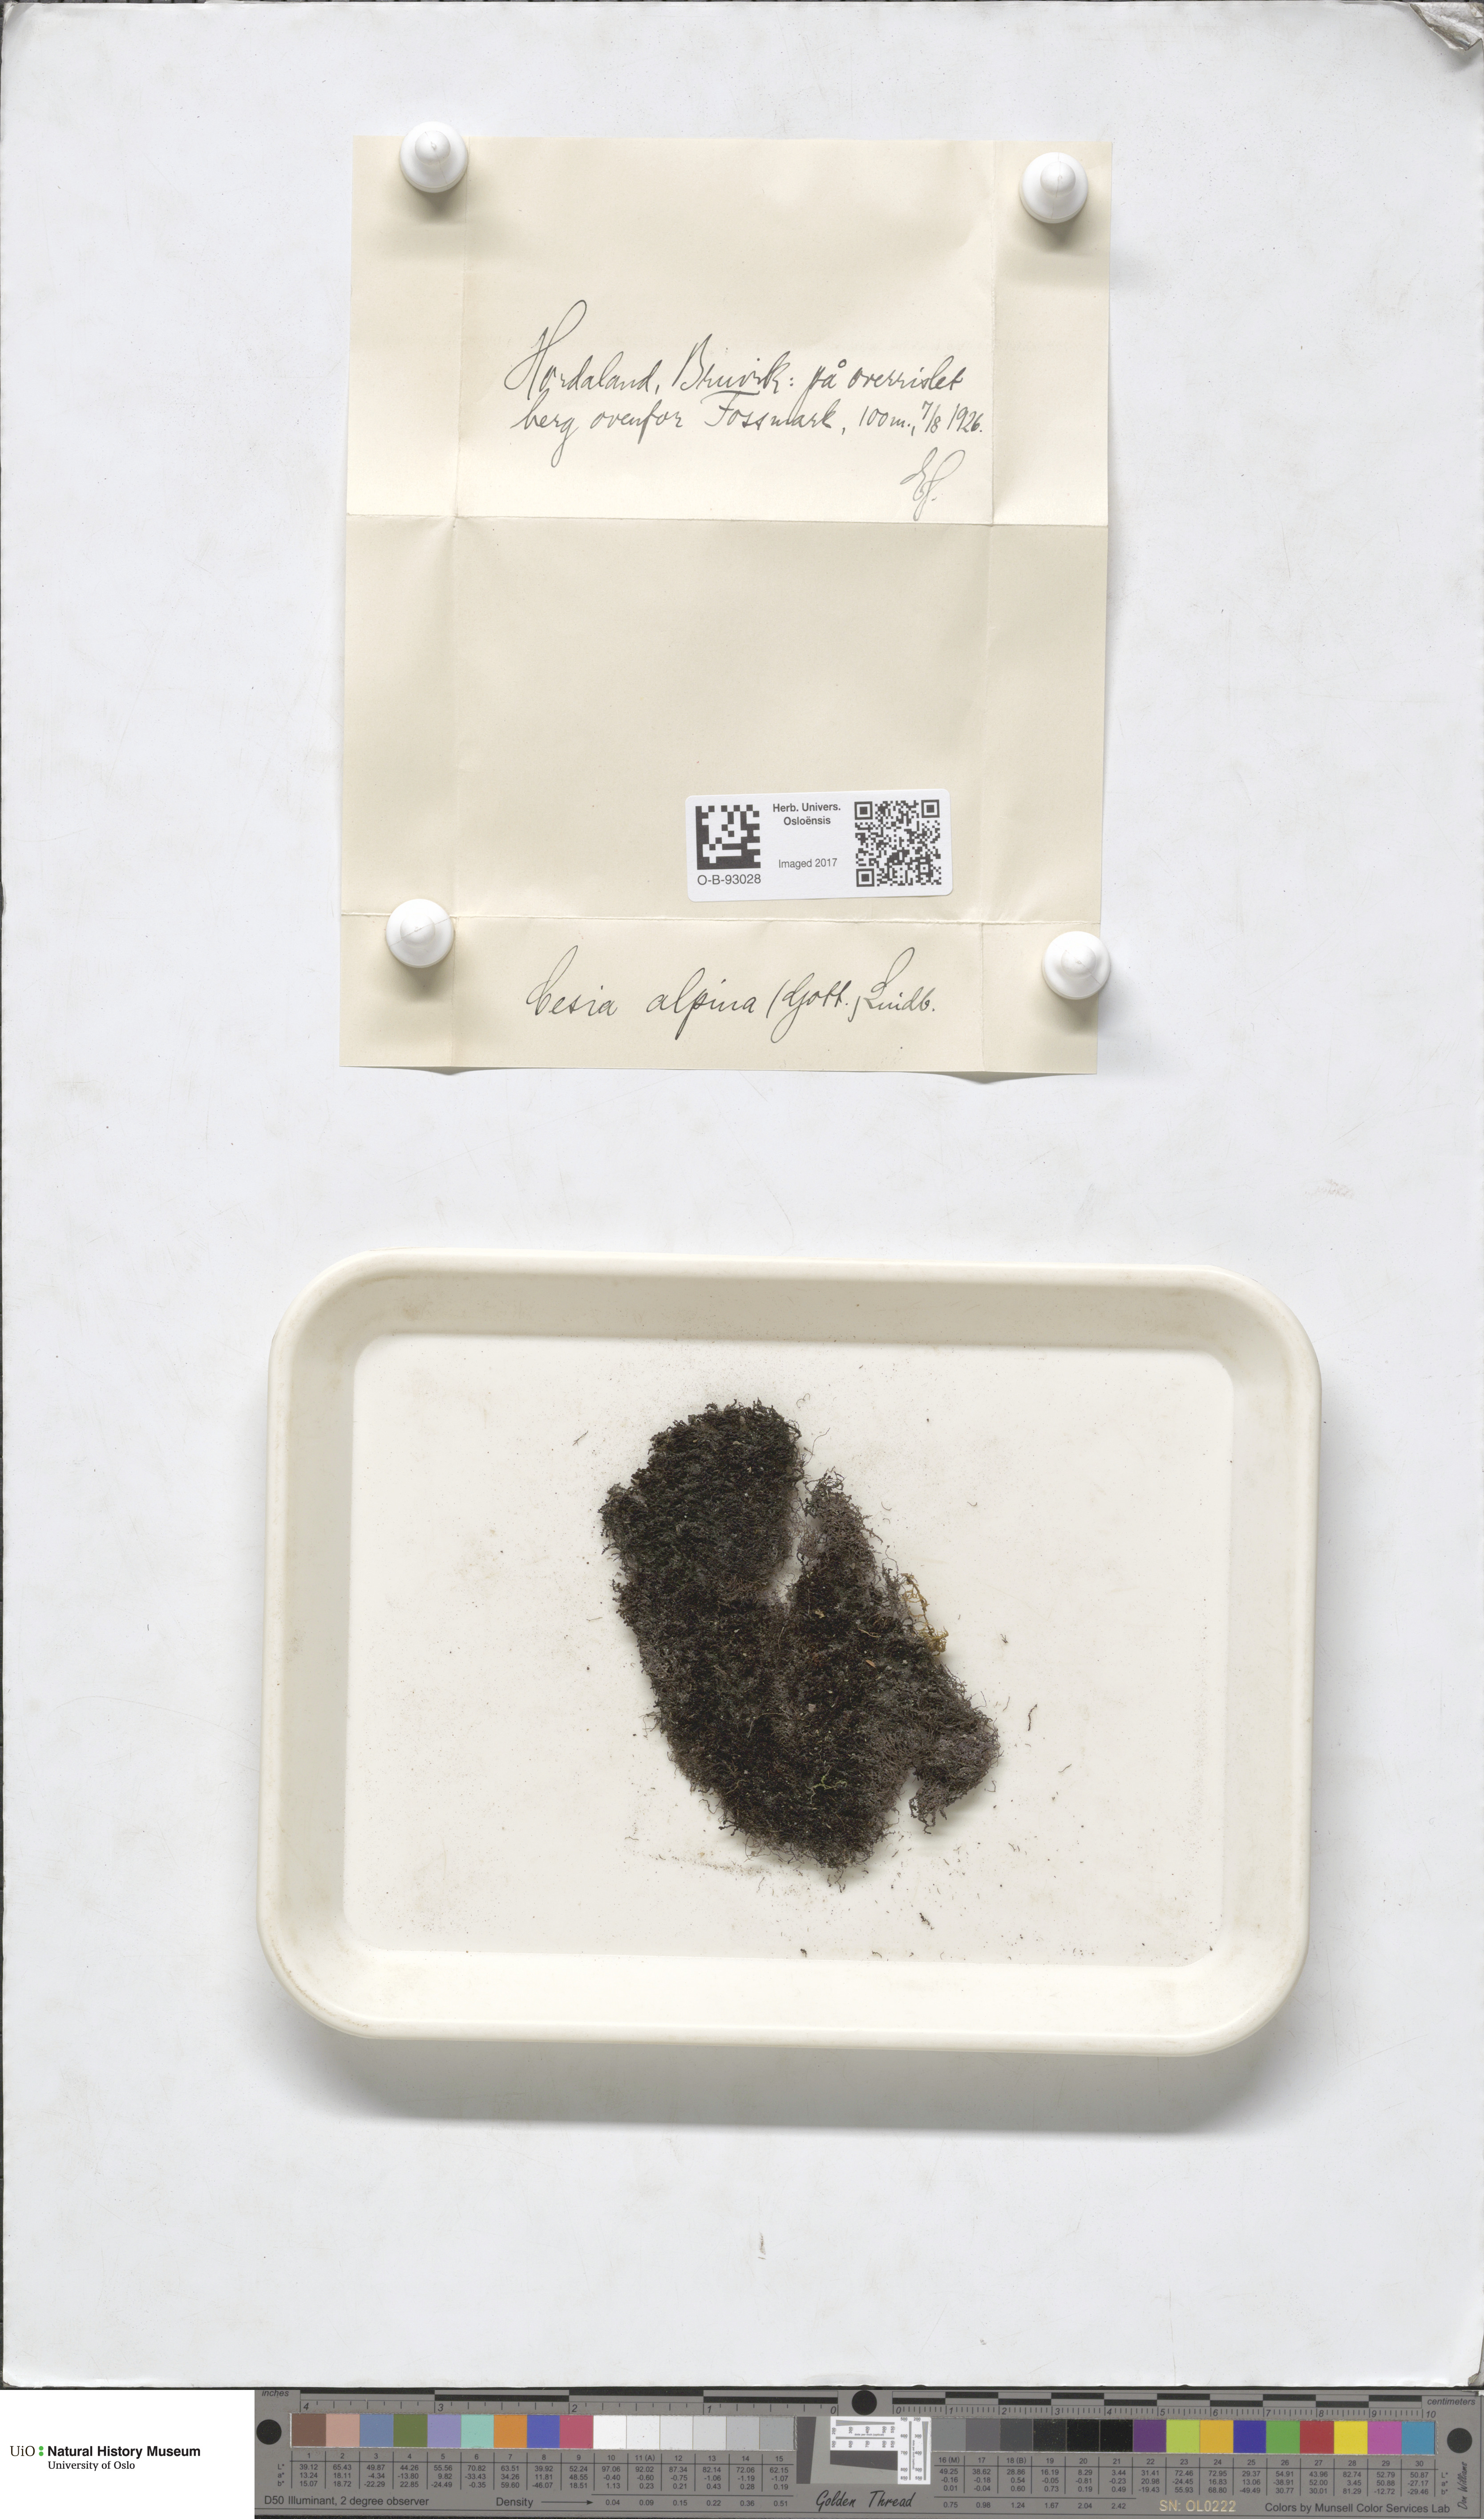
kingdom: Plantae
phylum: Marchantiophyta
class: Jungermanniopsida
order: Jungermanniales
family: Gymnomitriaceae
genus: Gymnomitrion
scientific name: Gymnomitrion alpinum
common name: Alpine rustwort
